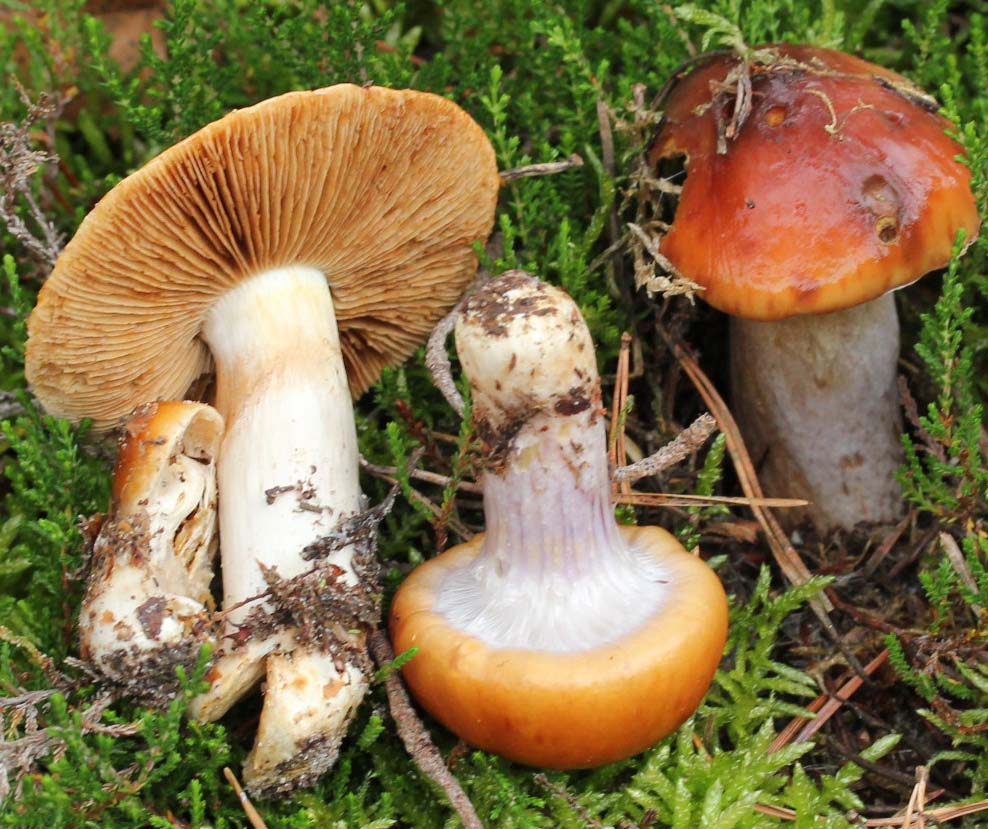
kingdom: Fungi
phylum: Basidiomycota
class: Agaricomycetes
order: Agaricales
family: Cortinariaceae
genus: Cortinarius
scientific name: Cortinarius mucosus
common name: kastaniebrun slørhat
